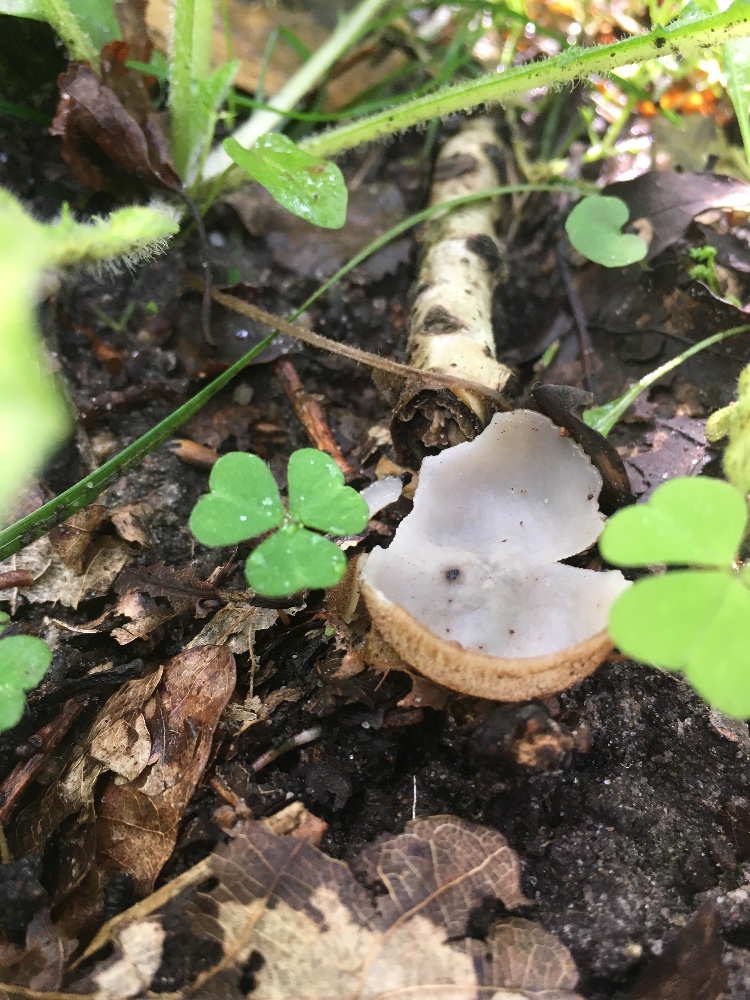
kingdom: Fungi
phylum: Ascomycota
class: Pezizomycetes
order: Pezizales
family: Pyronemataceae
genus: Humaria
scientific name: Humaria hemisphaerica
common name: halvkugleformet børstebæger
